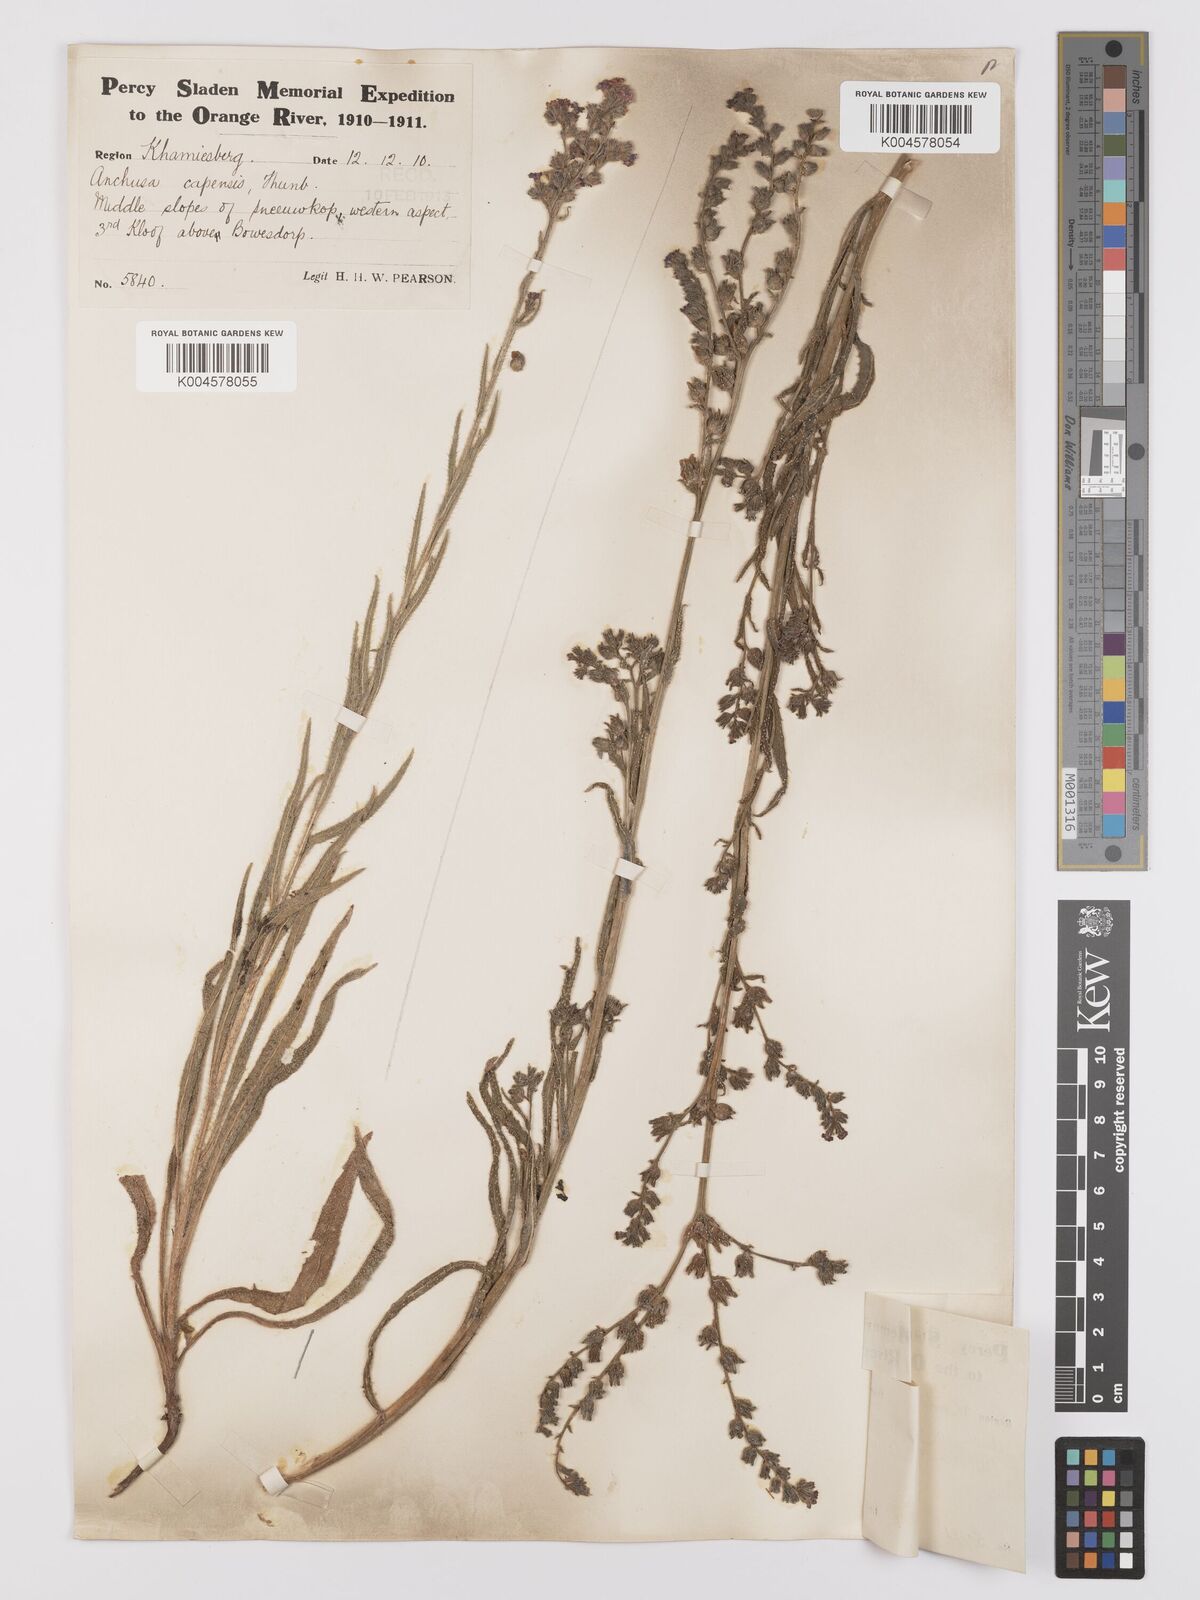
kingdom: Plantae
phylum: Tracheophyta
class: Magnoliopsida
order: Boraginales
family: Boraginaceae
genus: Anchusa
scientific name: Anchusa capensis
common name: Cape bugloss
